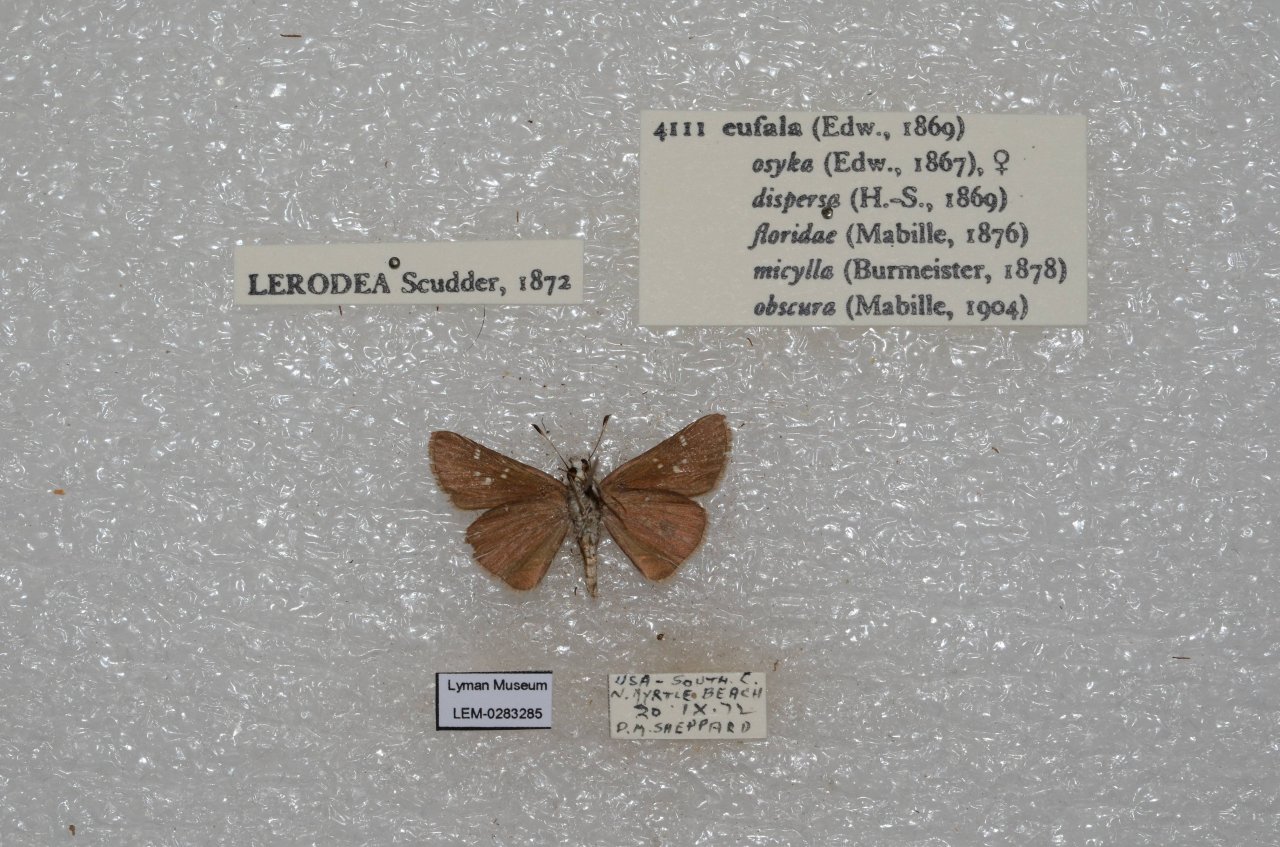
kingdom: Animalia
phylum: Arthropoda
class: Insecta
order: Lepidoptera
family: Hesperiidae
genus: Lerodea
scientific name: Lerodea eufala
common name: Eufala Skipper
